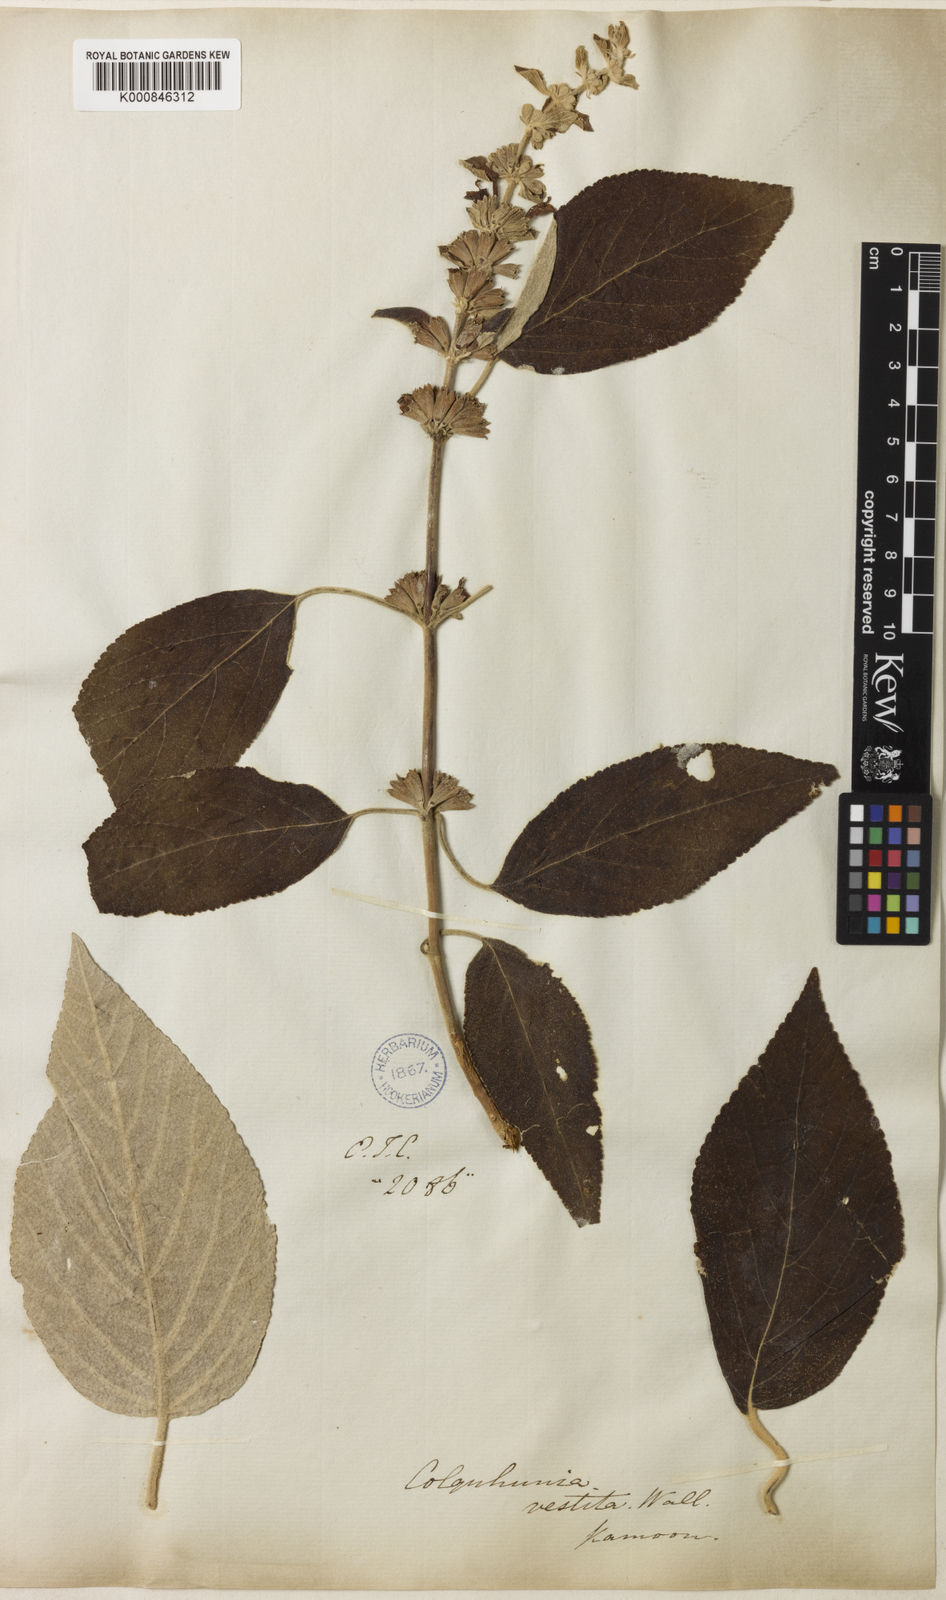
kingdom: Plantae
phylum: Tracheophyta
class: Magnoliopsida
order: Lamiales
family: Lamiaceae
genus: Colquhounia
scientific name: Colquhounia vestita
